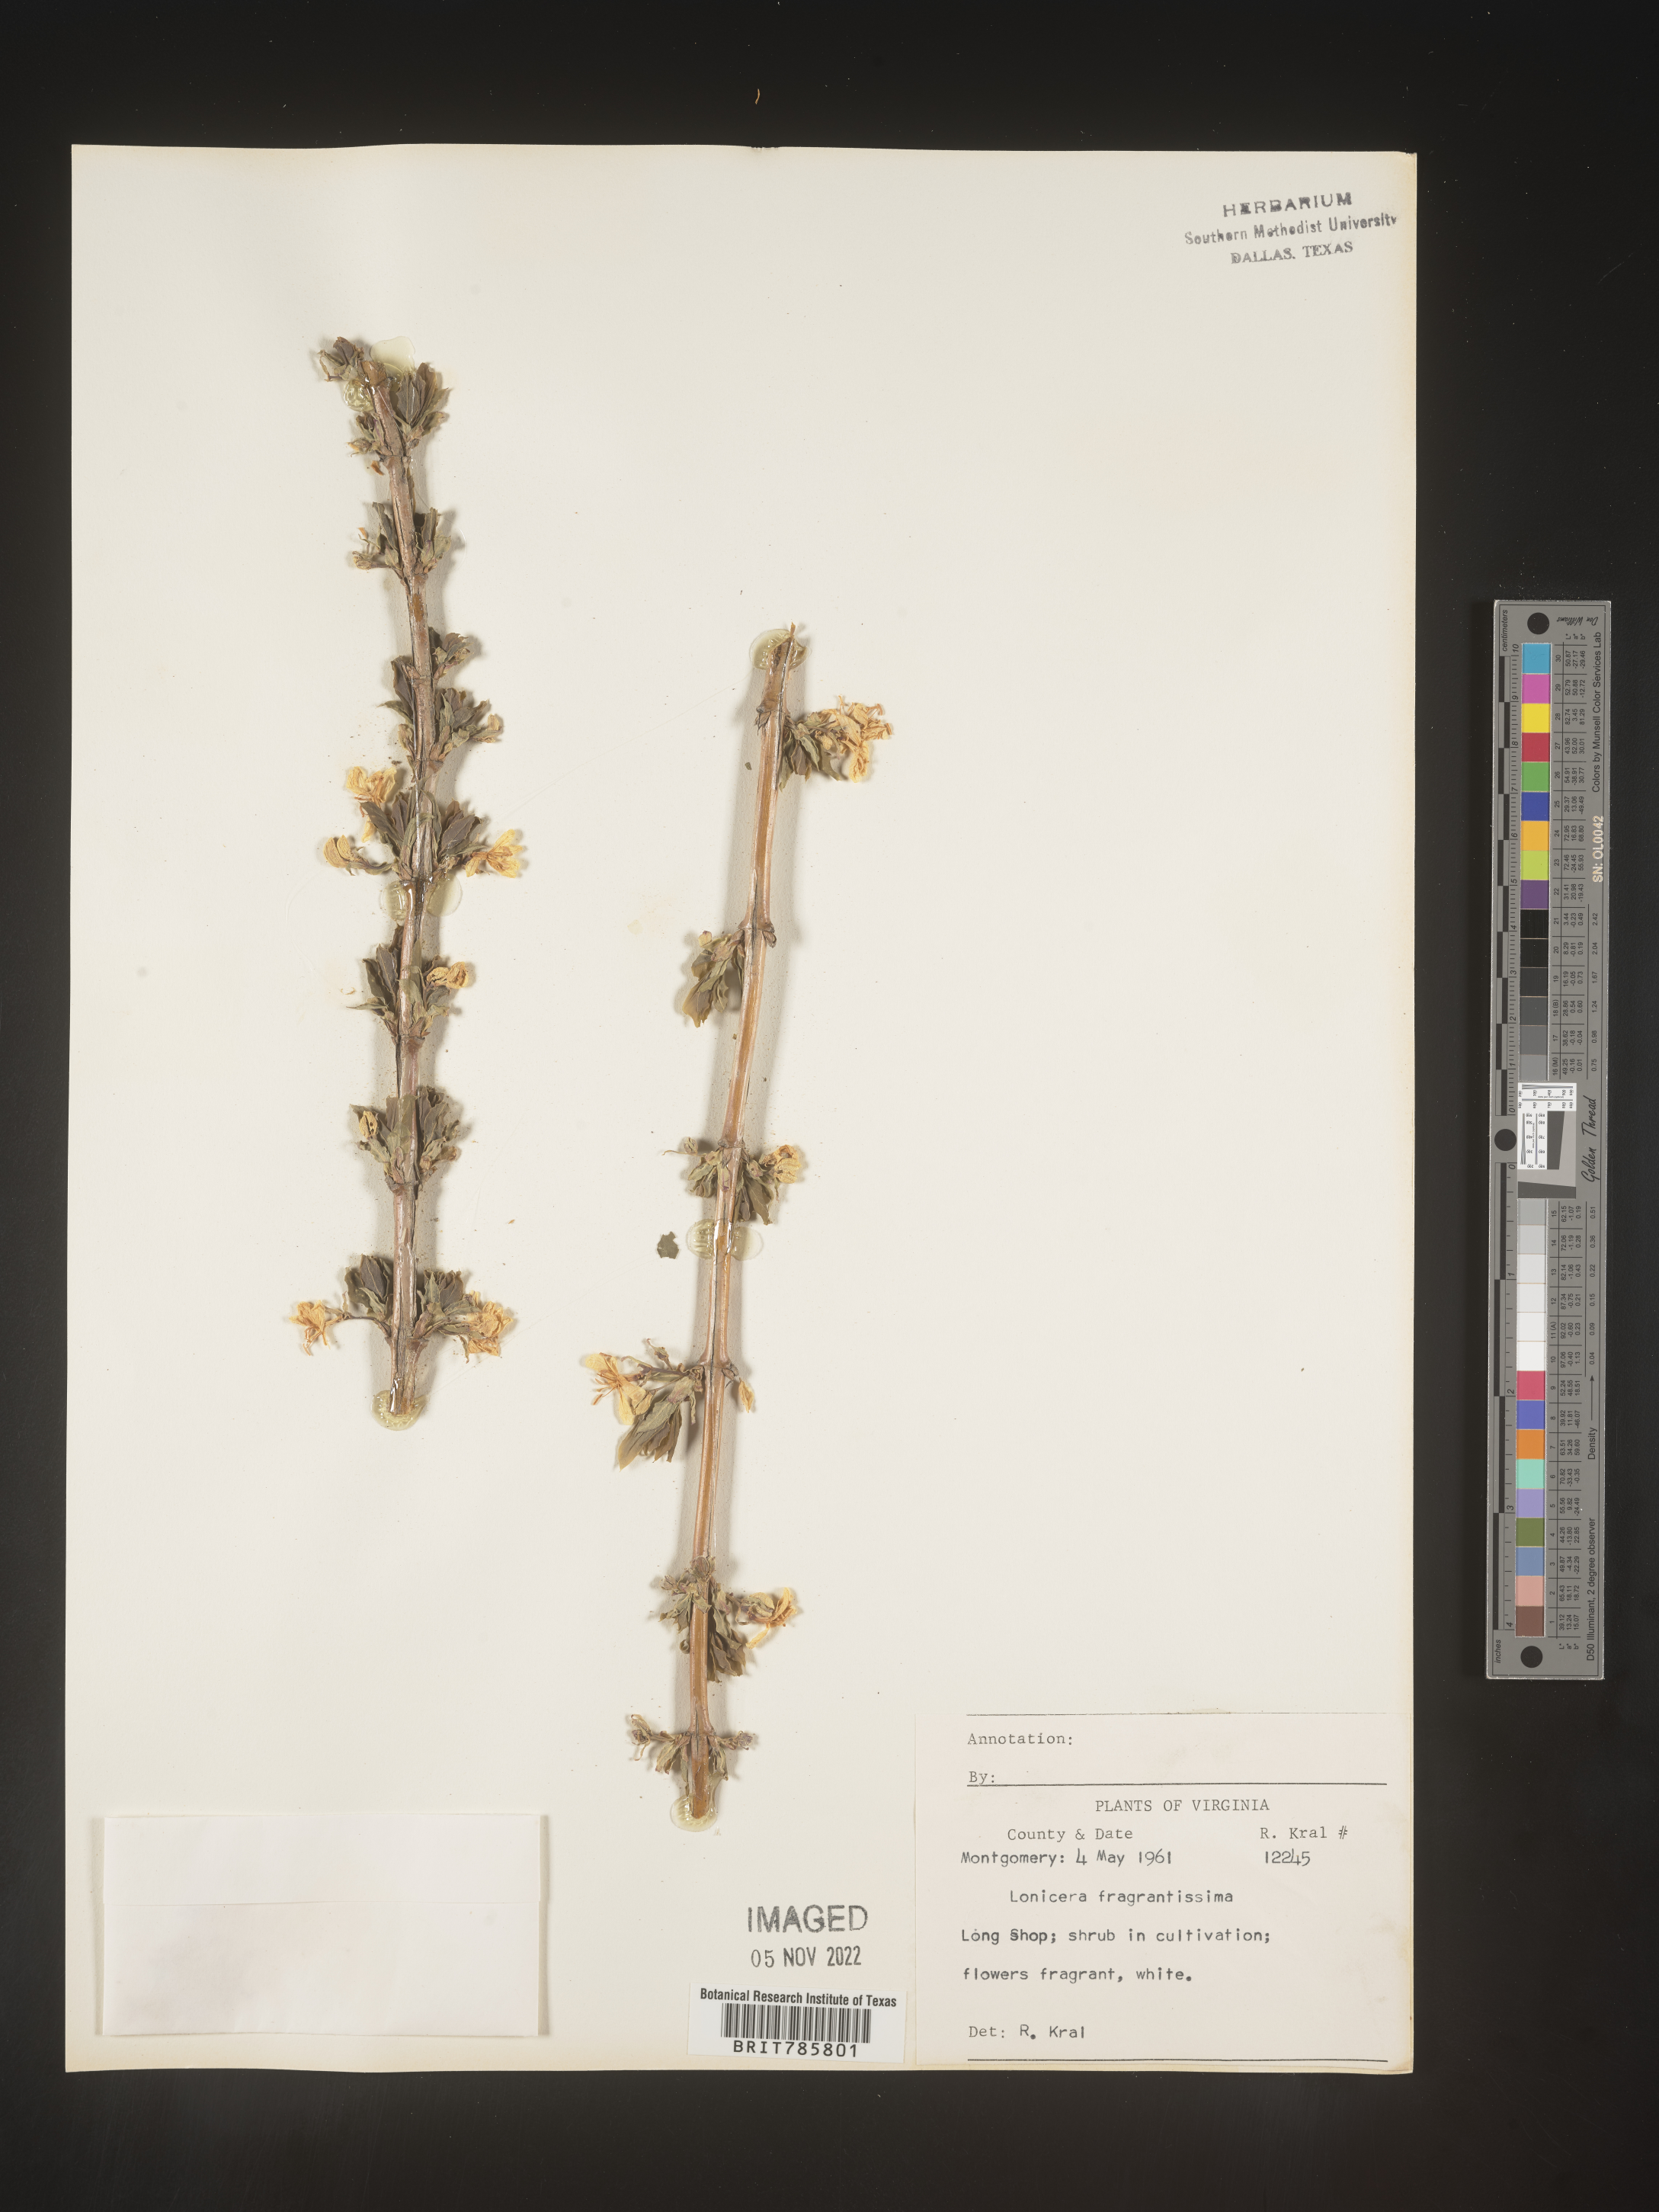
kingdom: Plantae
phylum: Tracheophyta
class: Magnoliopsida
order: Dipsacales
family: Caprifoliaceae
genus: Lonicera
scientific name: Lonicera
